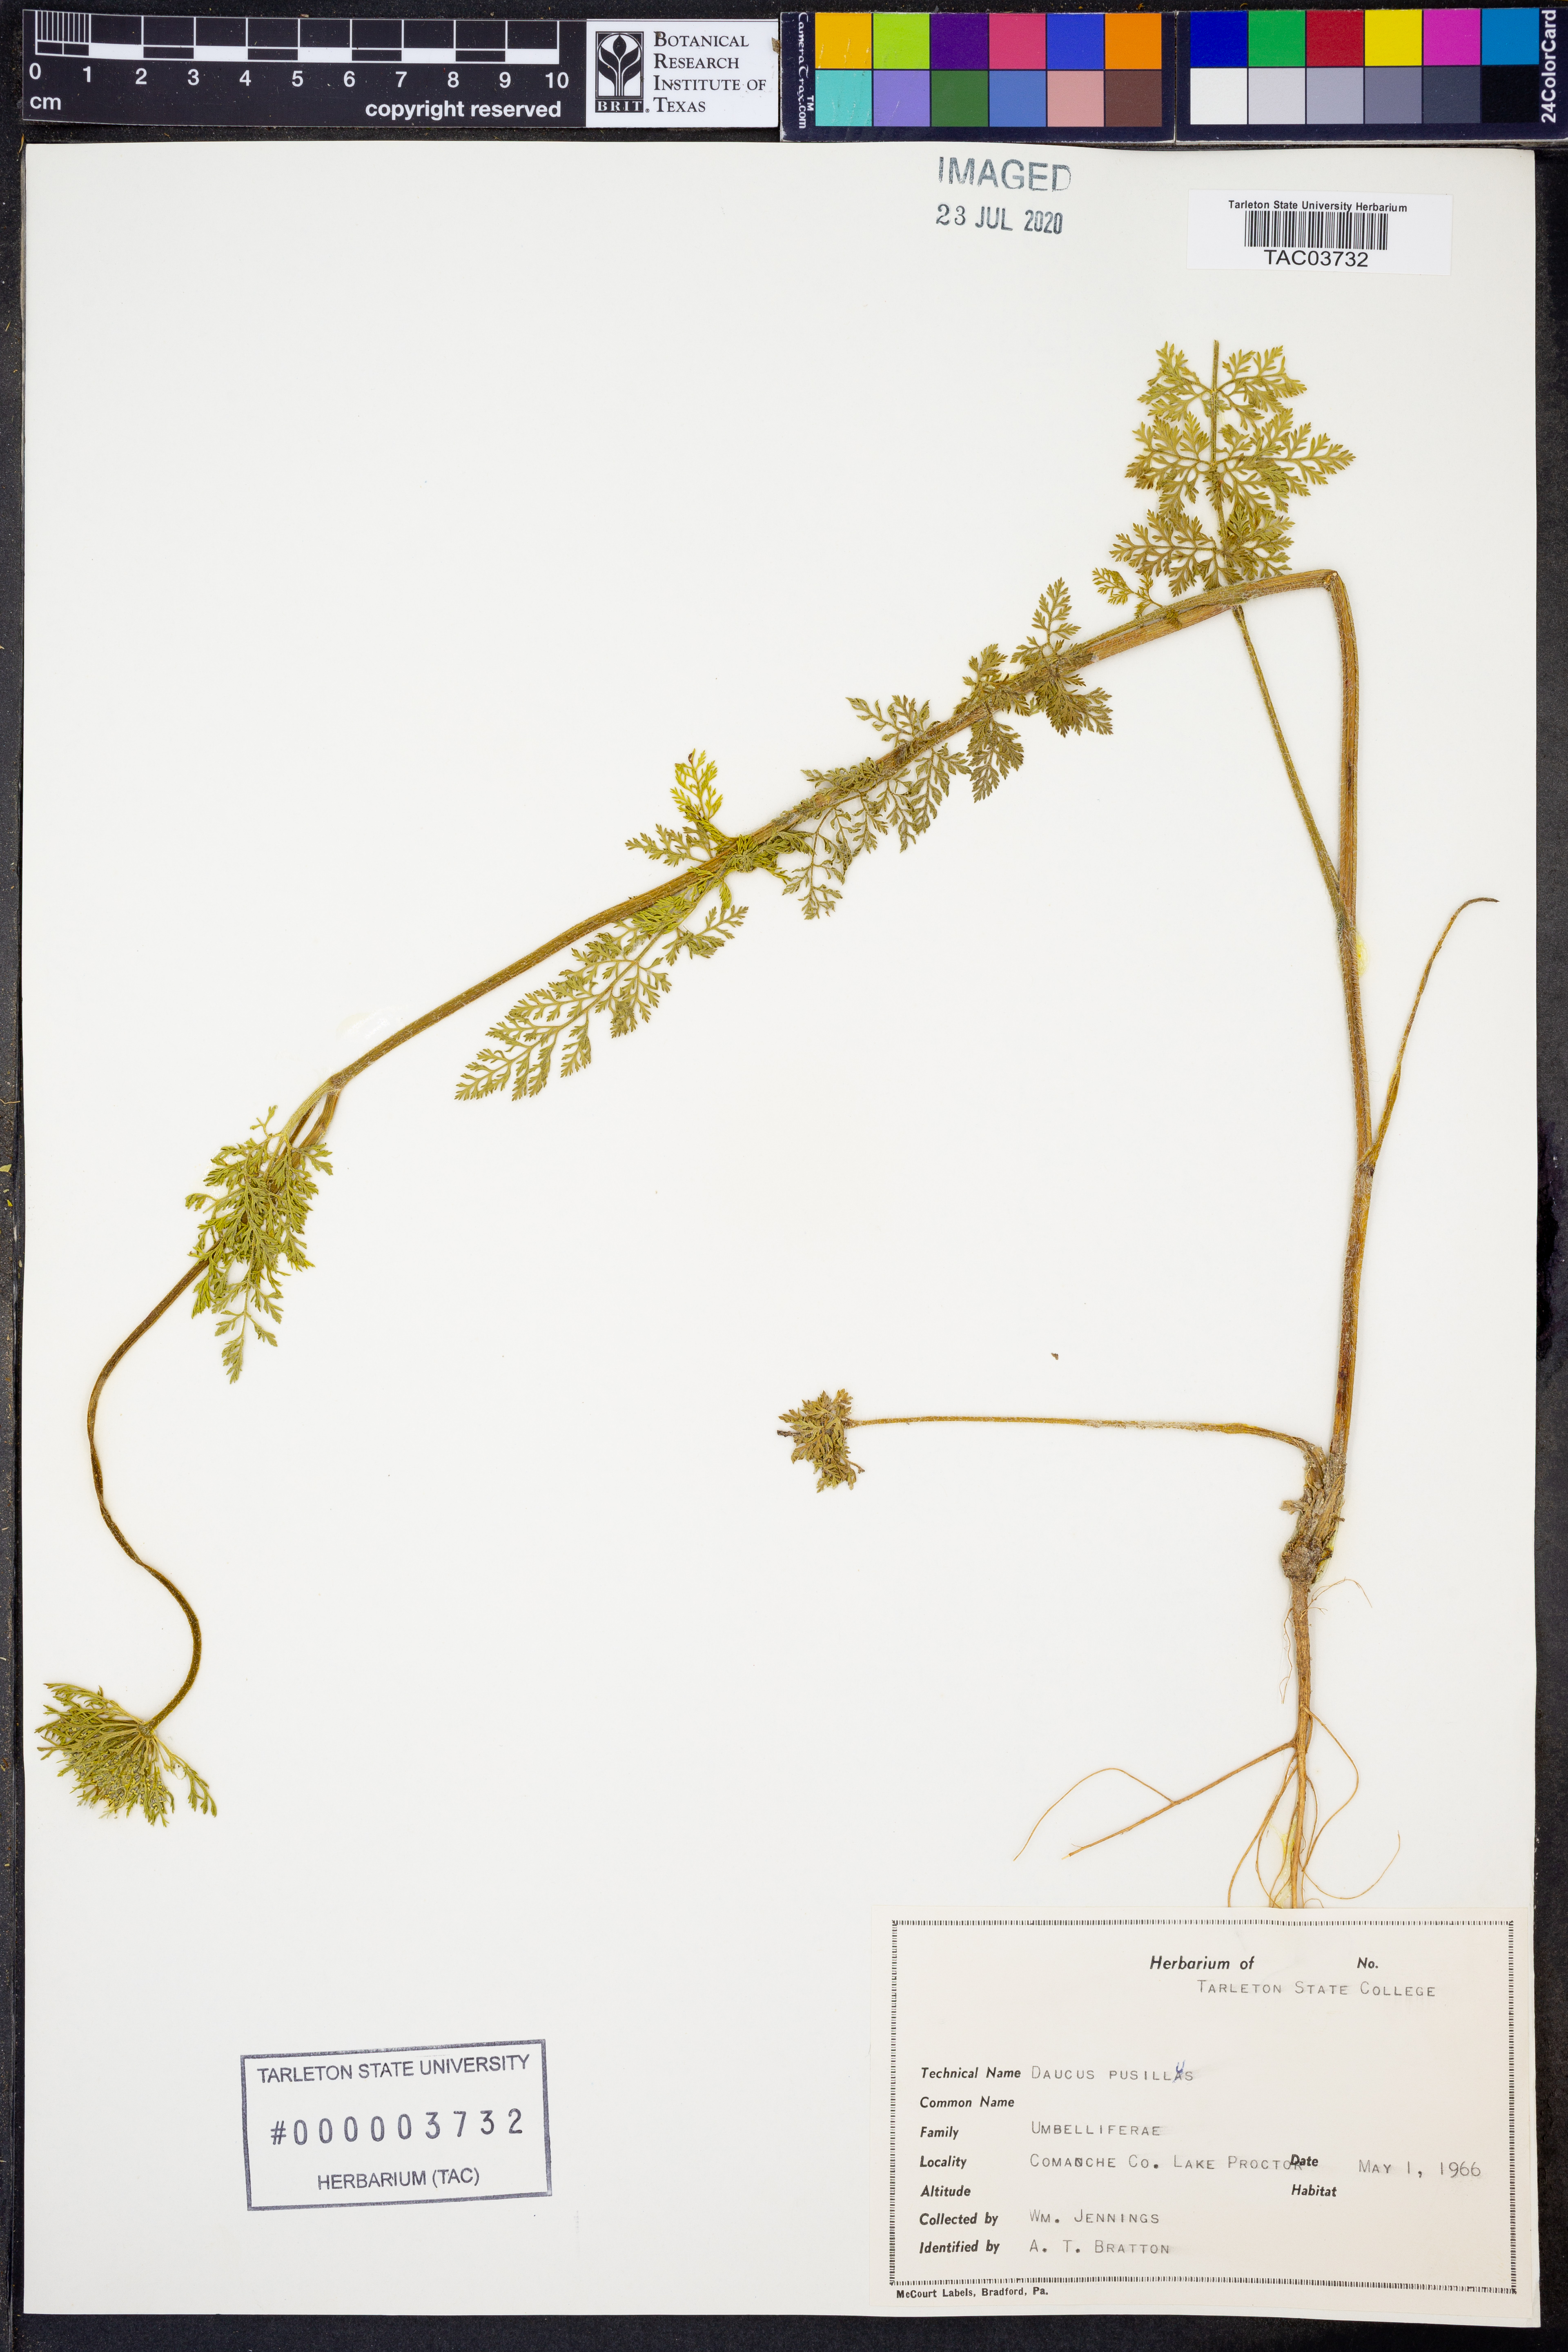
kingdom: Plantae
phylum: Tracheophyta
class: Magnoliopsida
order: Apiales
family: Apiaceae
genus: Daucus
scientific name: Daucus pusillus
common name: Southwest wild carrot
